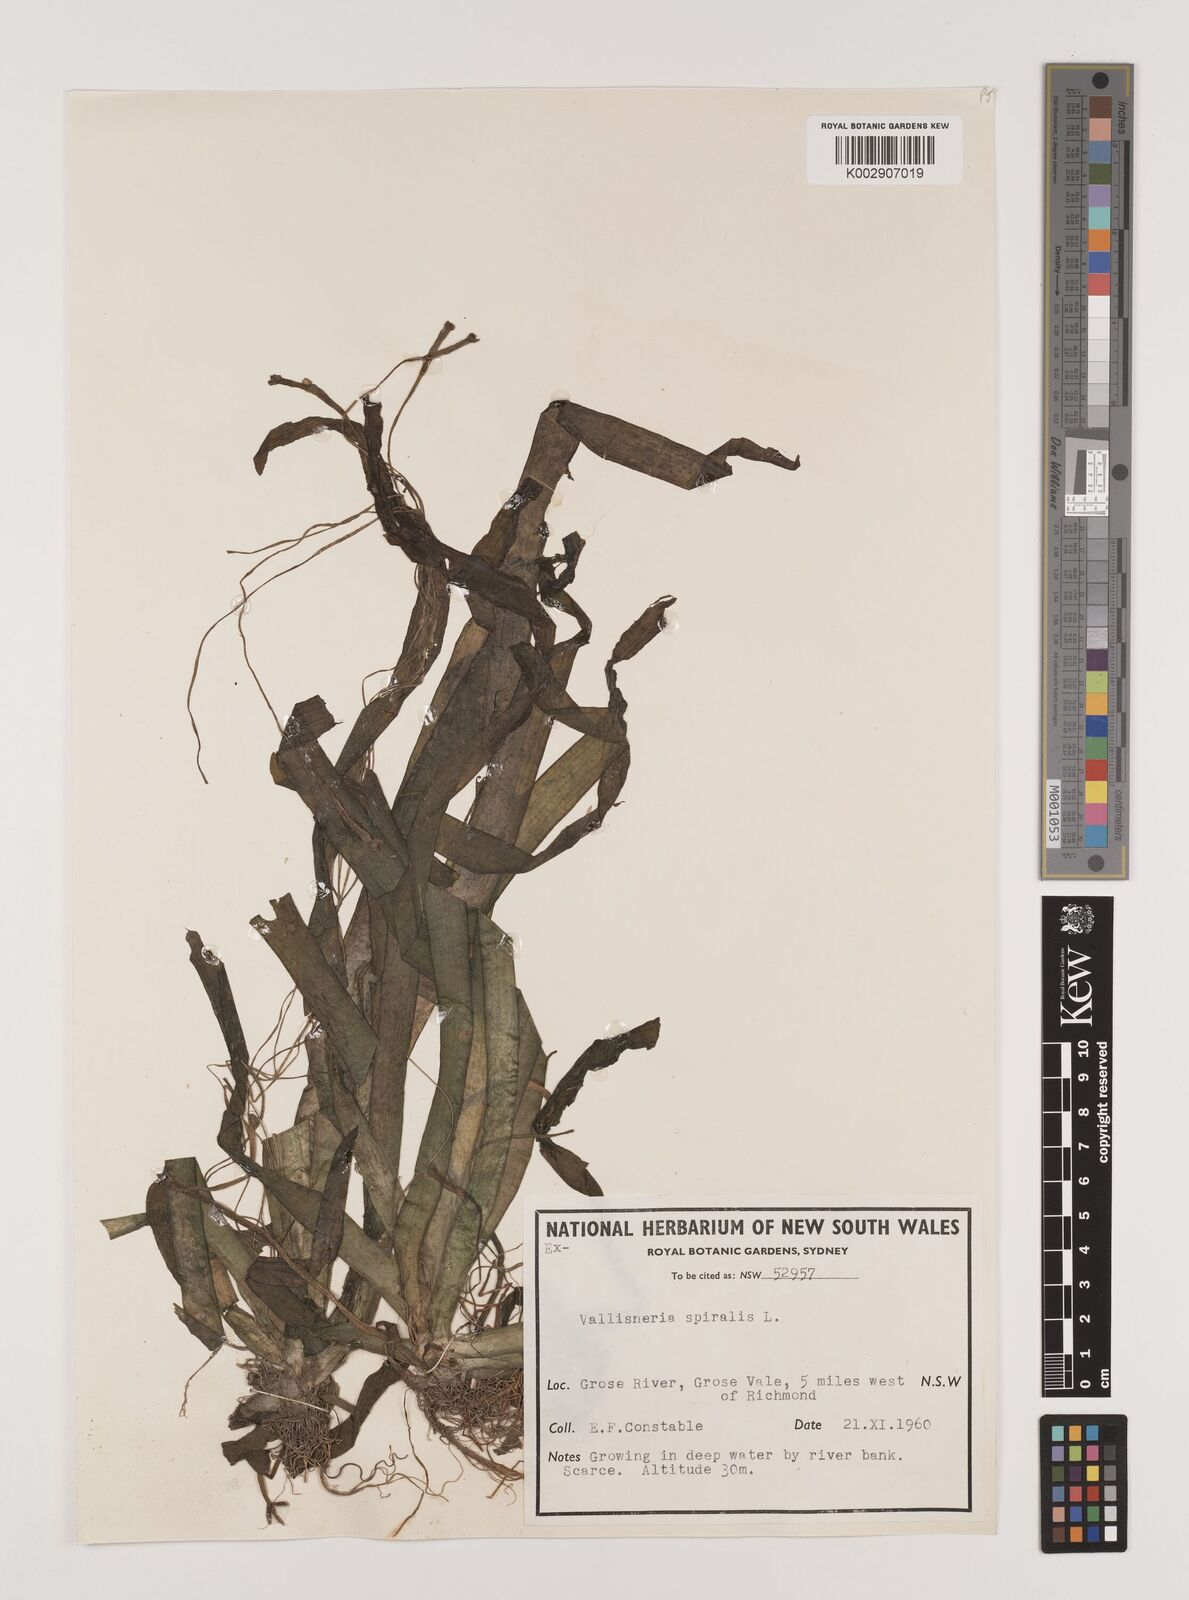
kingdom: Plantae
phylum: Tracheophyta
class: Liliopsida
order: Alismatales
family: Hydrocharitaceae
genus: Vallisneria
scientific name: Vallisneria spiralis
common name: Tapegrass
